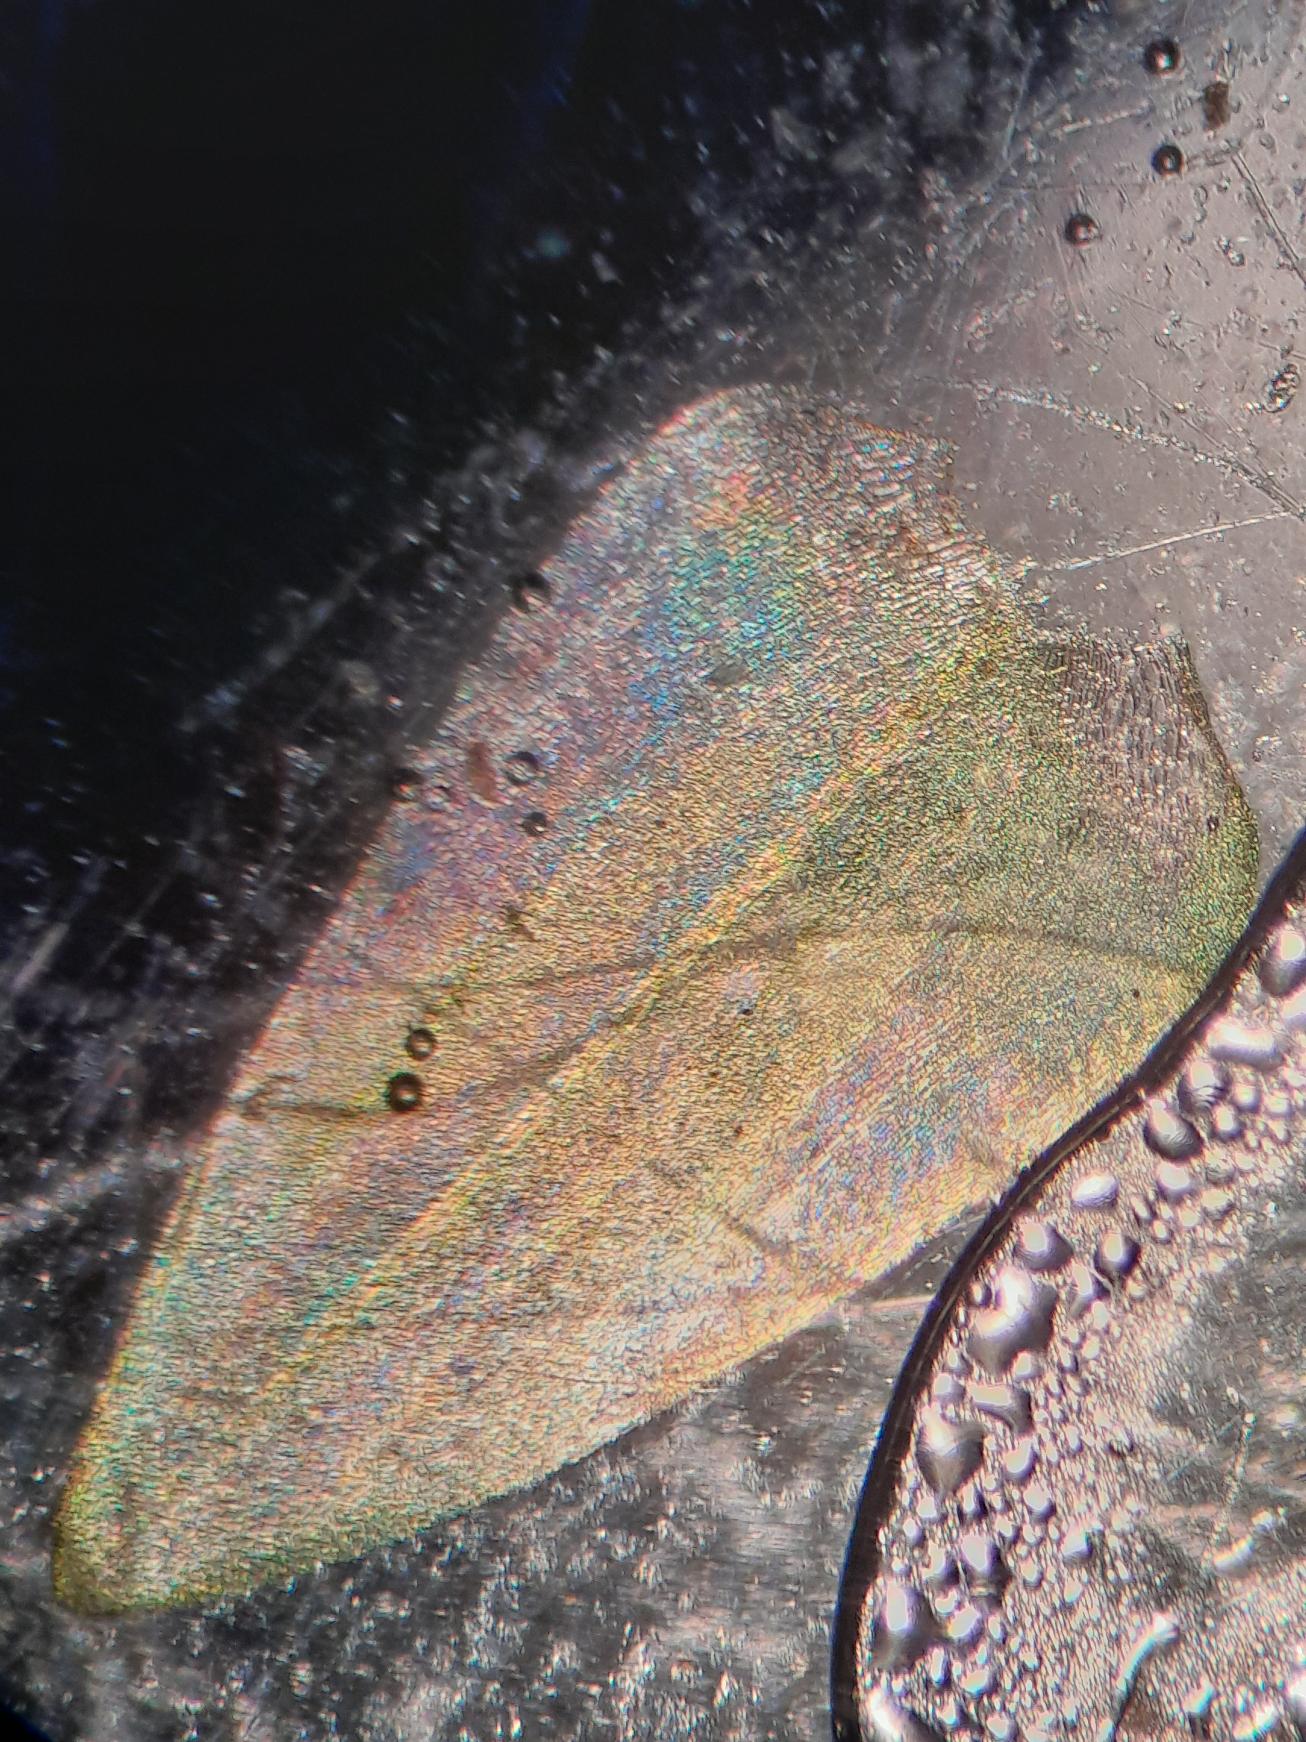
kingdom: Plantae
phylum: Bryophyta
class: Bryopsida
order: Hypnales
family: Calliergonaceae
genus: Calliergon
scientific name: Calliergon cordifolium
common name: Almindelig skebladsmos
